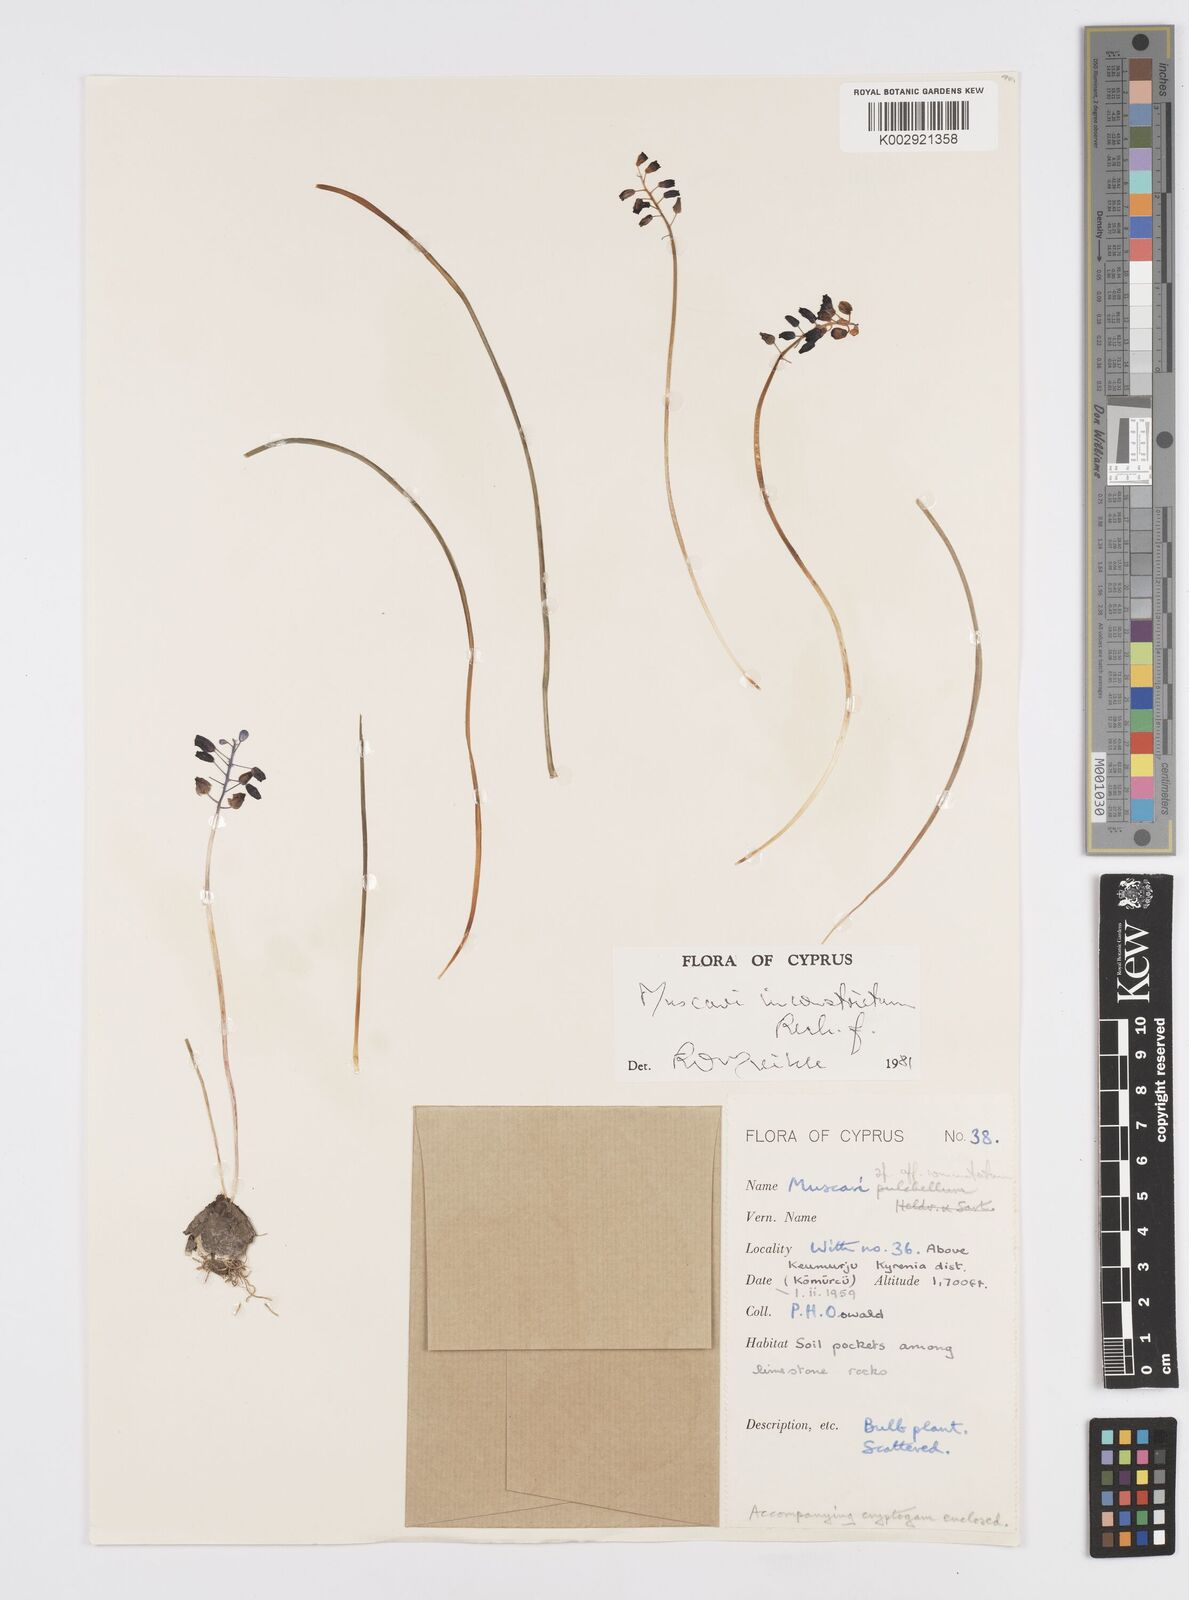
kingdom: Plantae
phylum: Tracheophyta
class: Liliopsida
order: Asparagales
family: Asparagaceae
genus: Muscari
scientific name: Muscari
